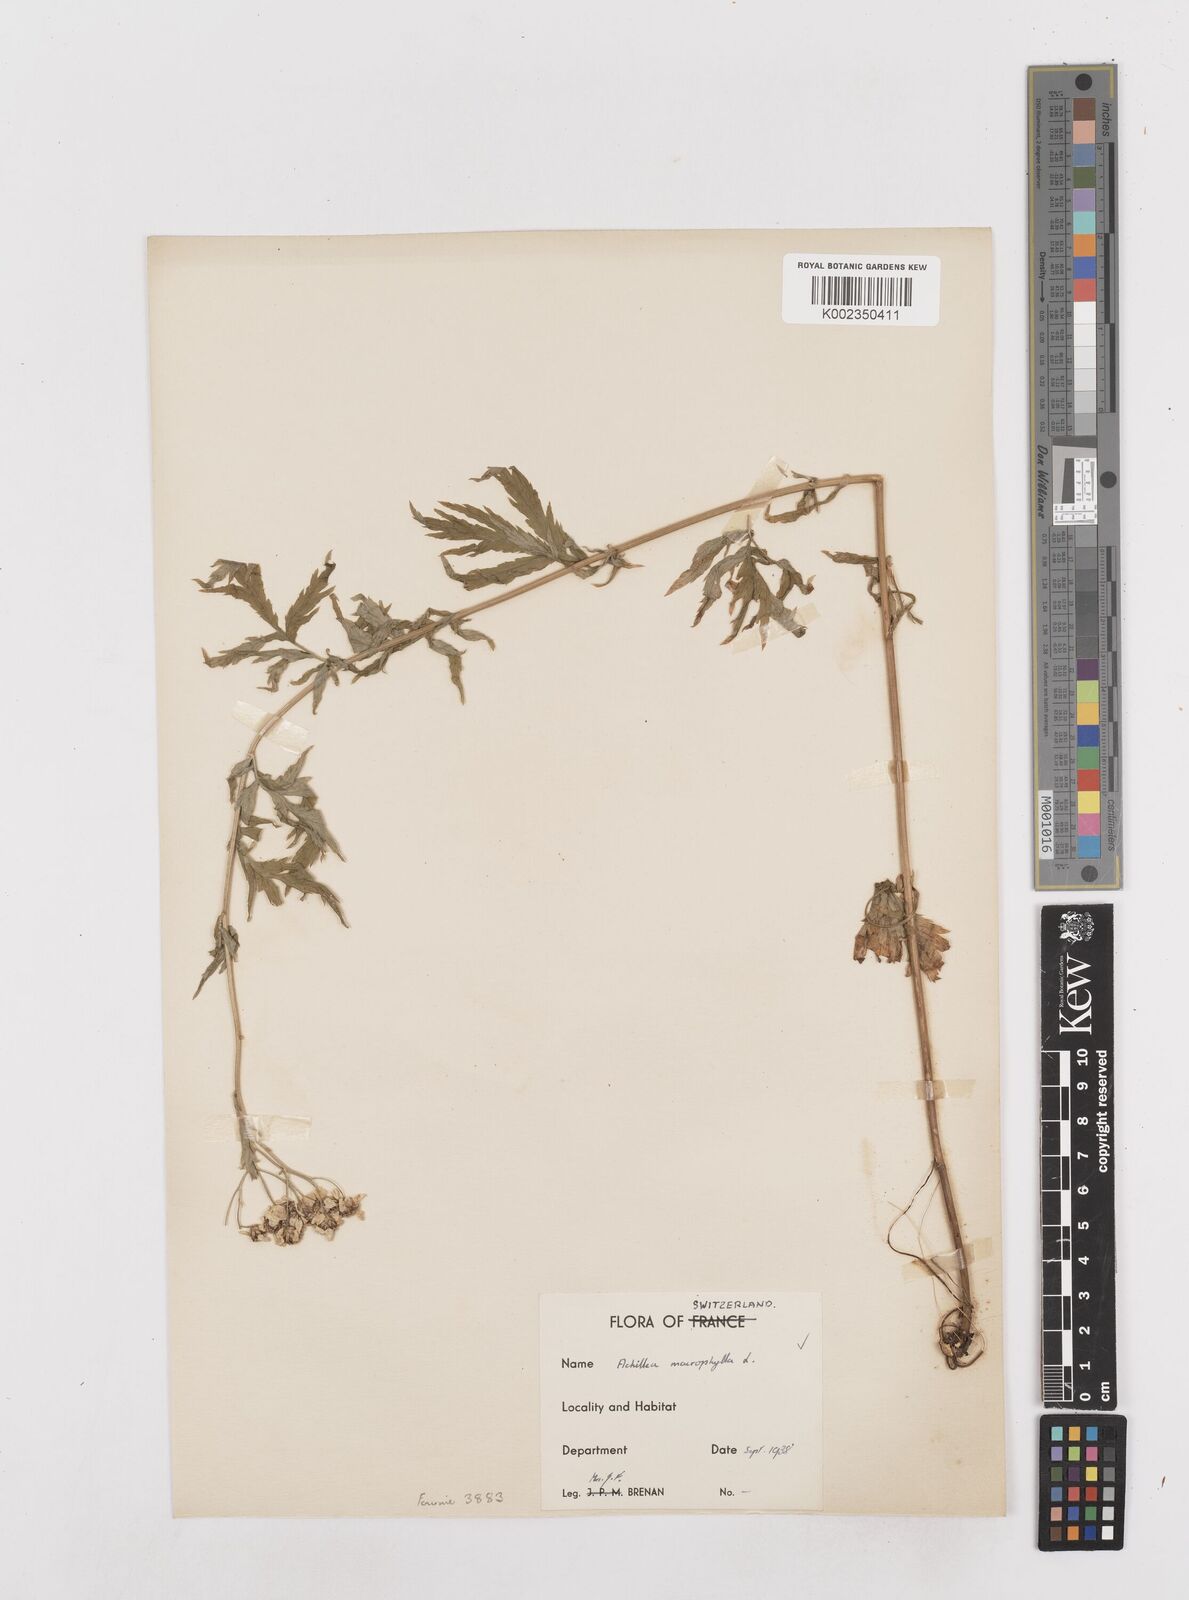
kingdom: Plantae
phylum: Tracheophyta
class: Magnoliopsida
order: Asterales
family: Asteraceae
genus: Achillea
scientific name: Achillea macrophylla
